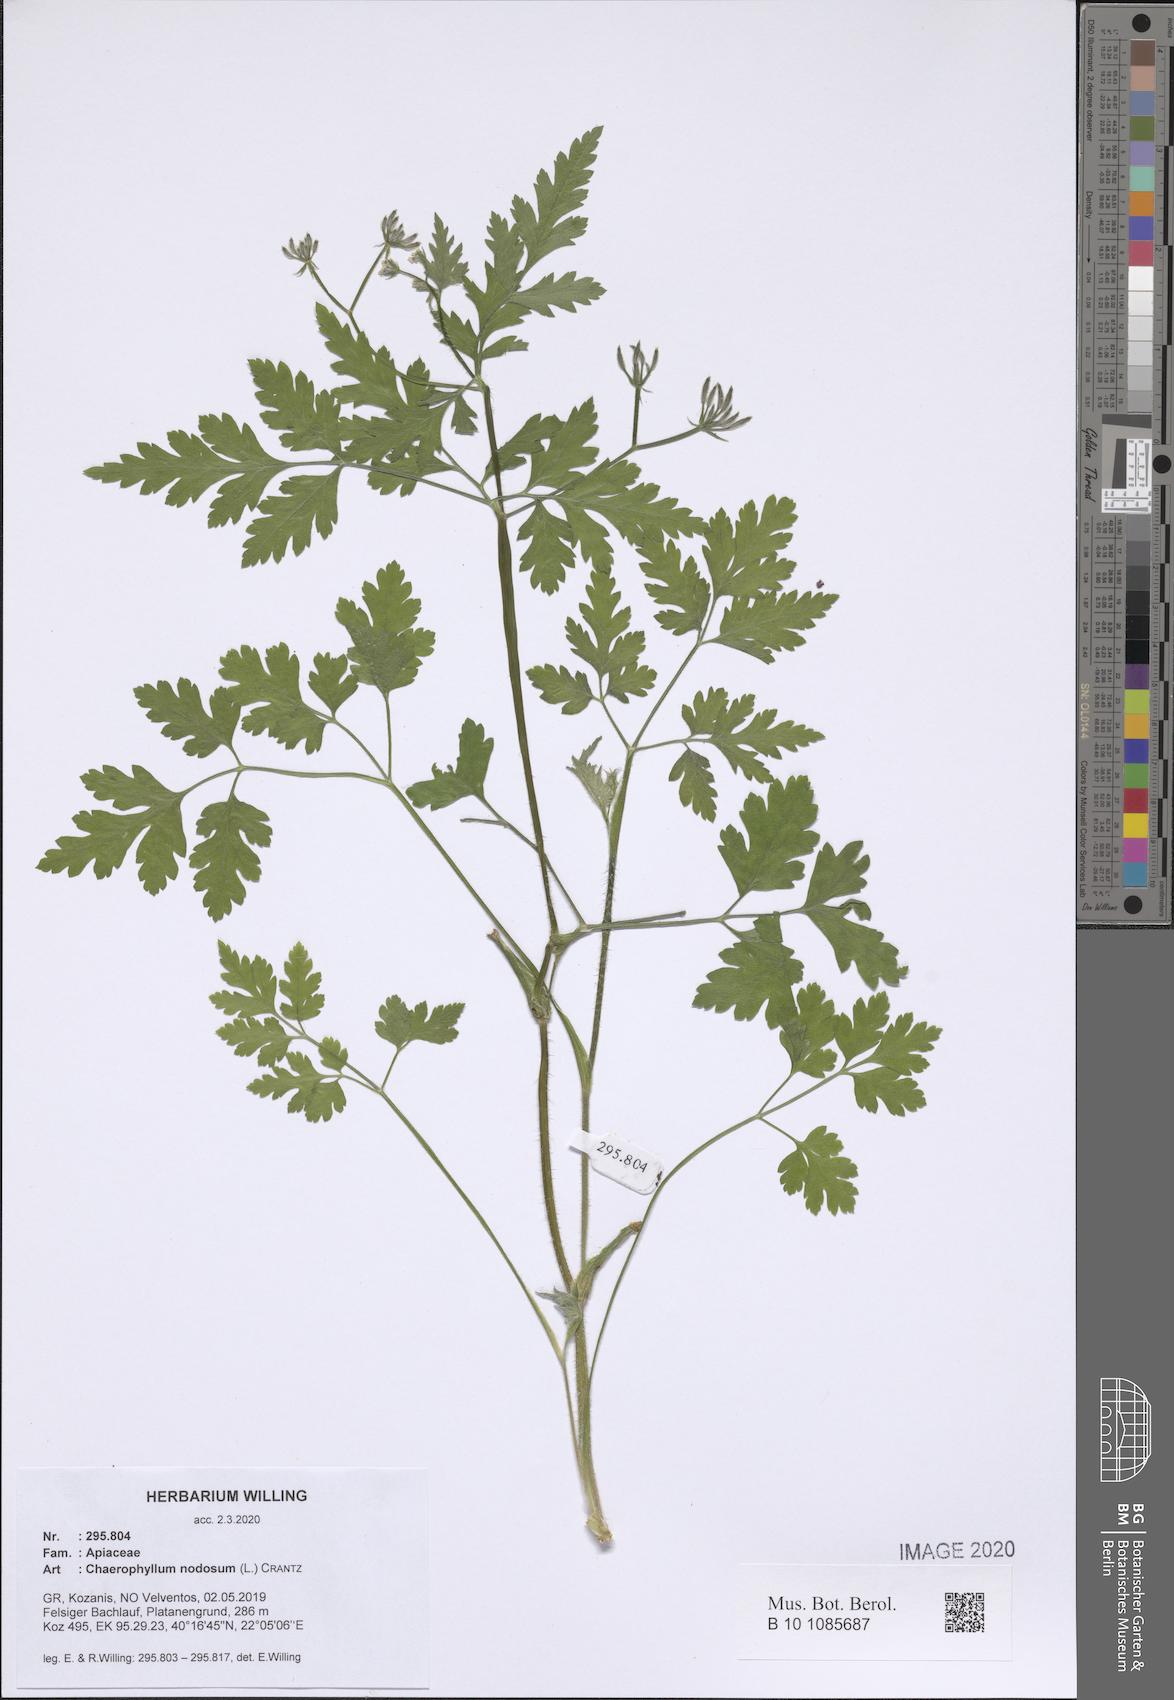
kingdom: Plantae
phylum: Tracheophyta
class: Magnoliopsida
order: Apiales
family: Apiaceae
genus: Chaerophyllum
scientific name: Chaerophyllum nodosum
